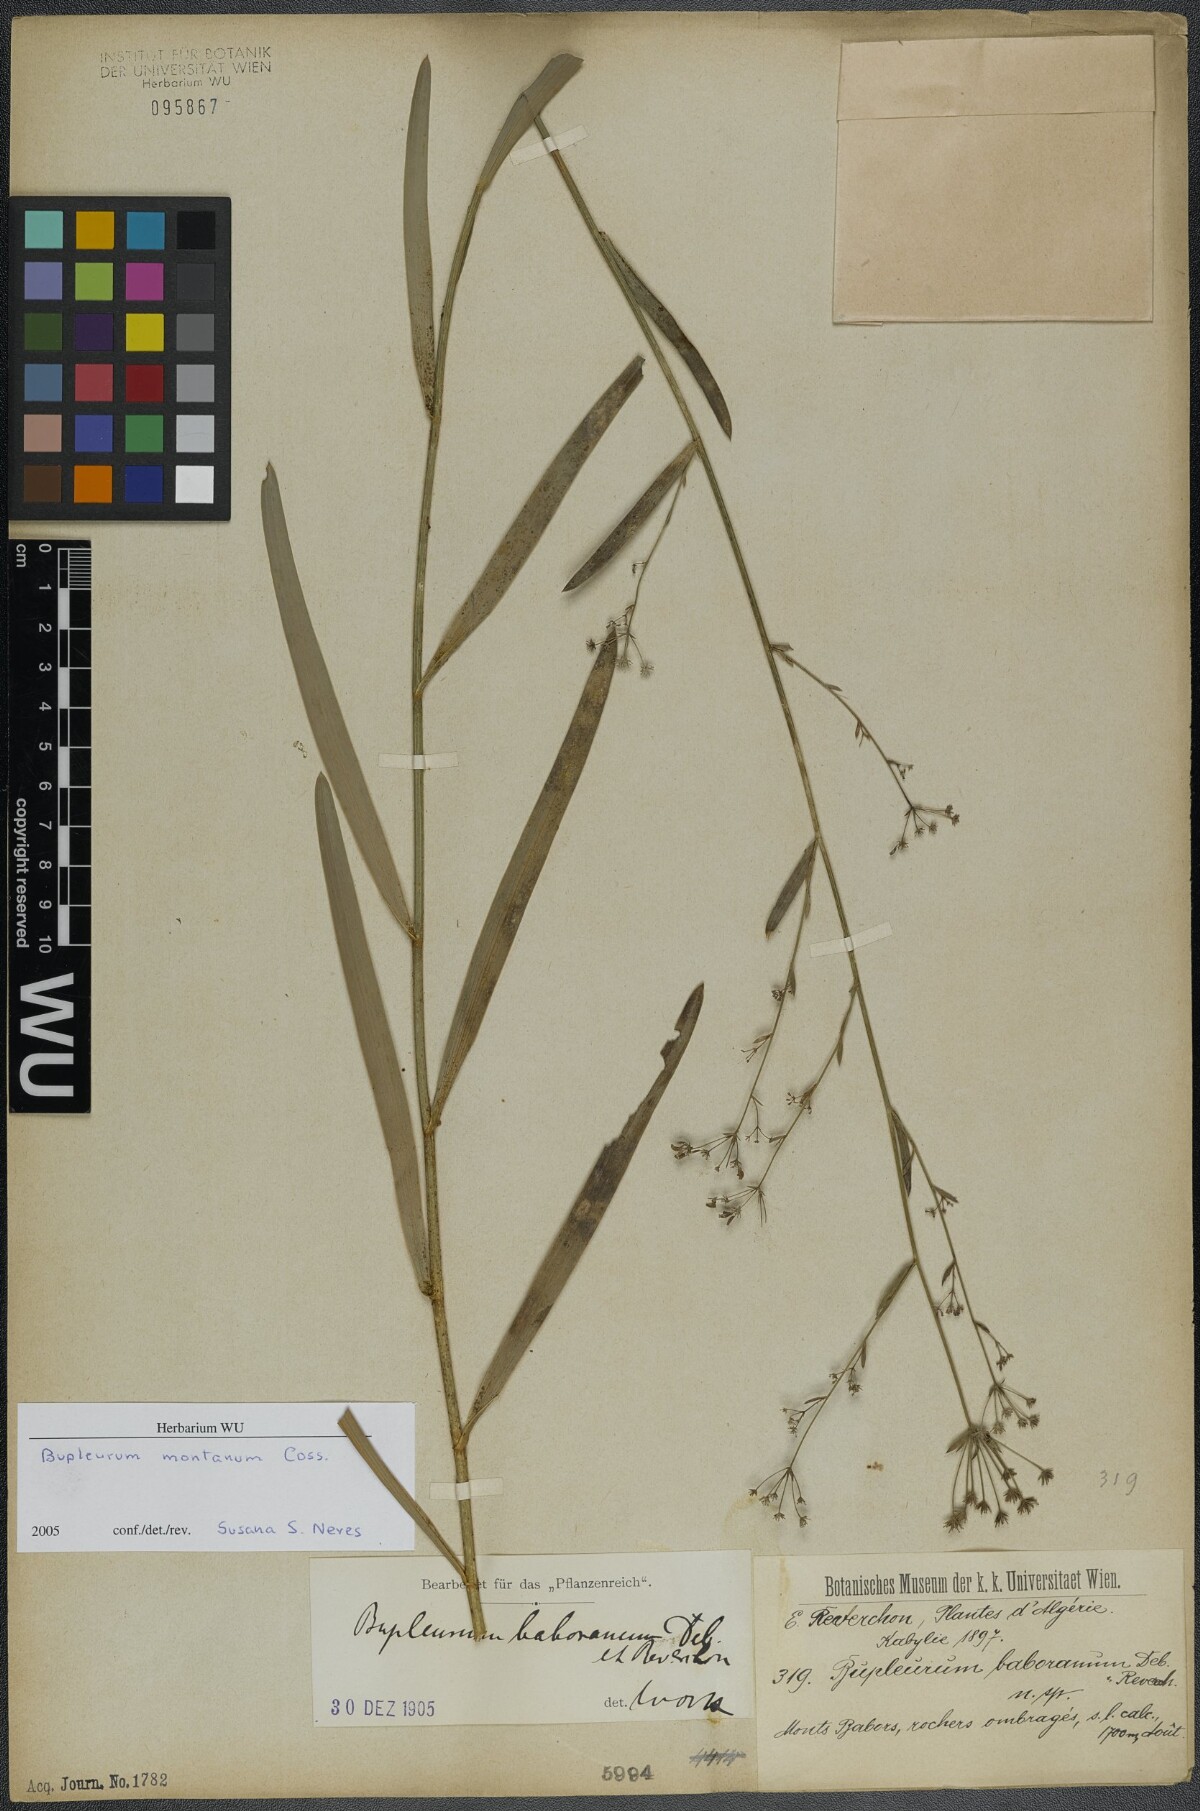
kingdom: Plantae
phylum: Tracheophyta
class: Magnoliopsida
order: Apiales
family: Apiaceae
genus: Bupleurum
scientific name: Bupleurum montanum
